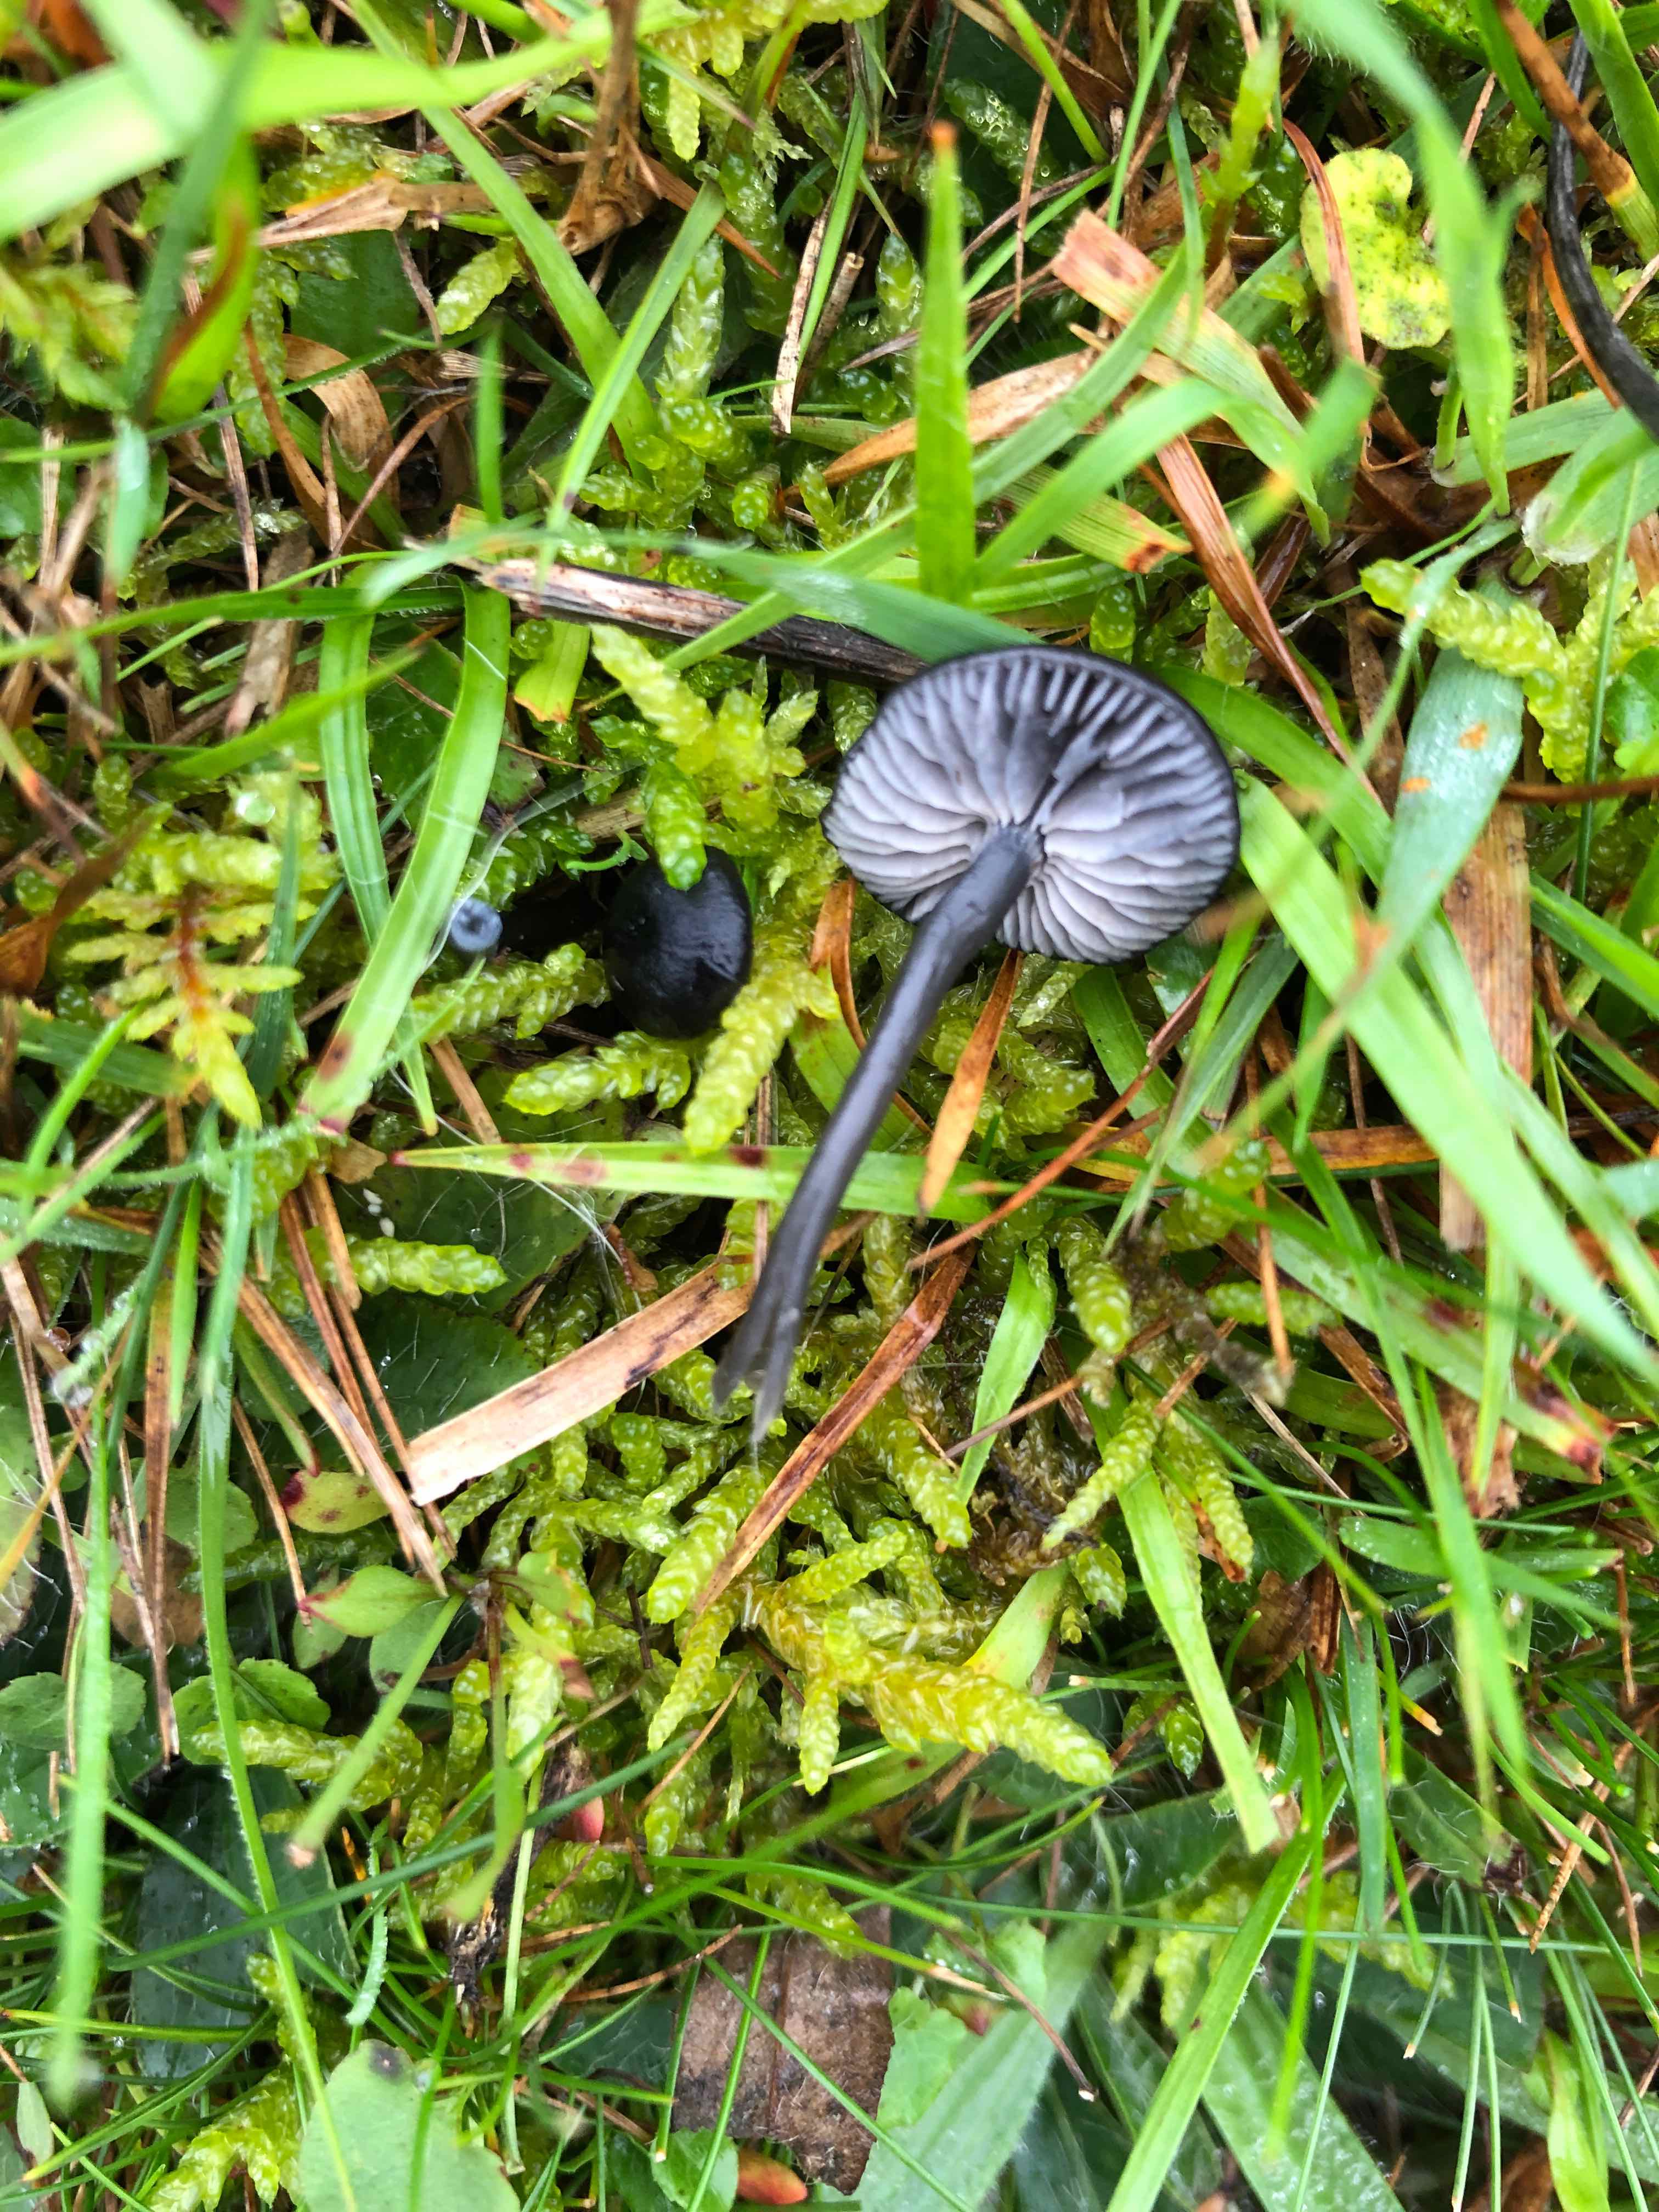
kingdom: Fungi
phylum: Basidiomycota
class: Agaricomycetes
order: Agaricales
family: Entolomataceae
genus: Entoloma
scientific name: Entoloma chalybeum
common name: blåbladet rødblad
